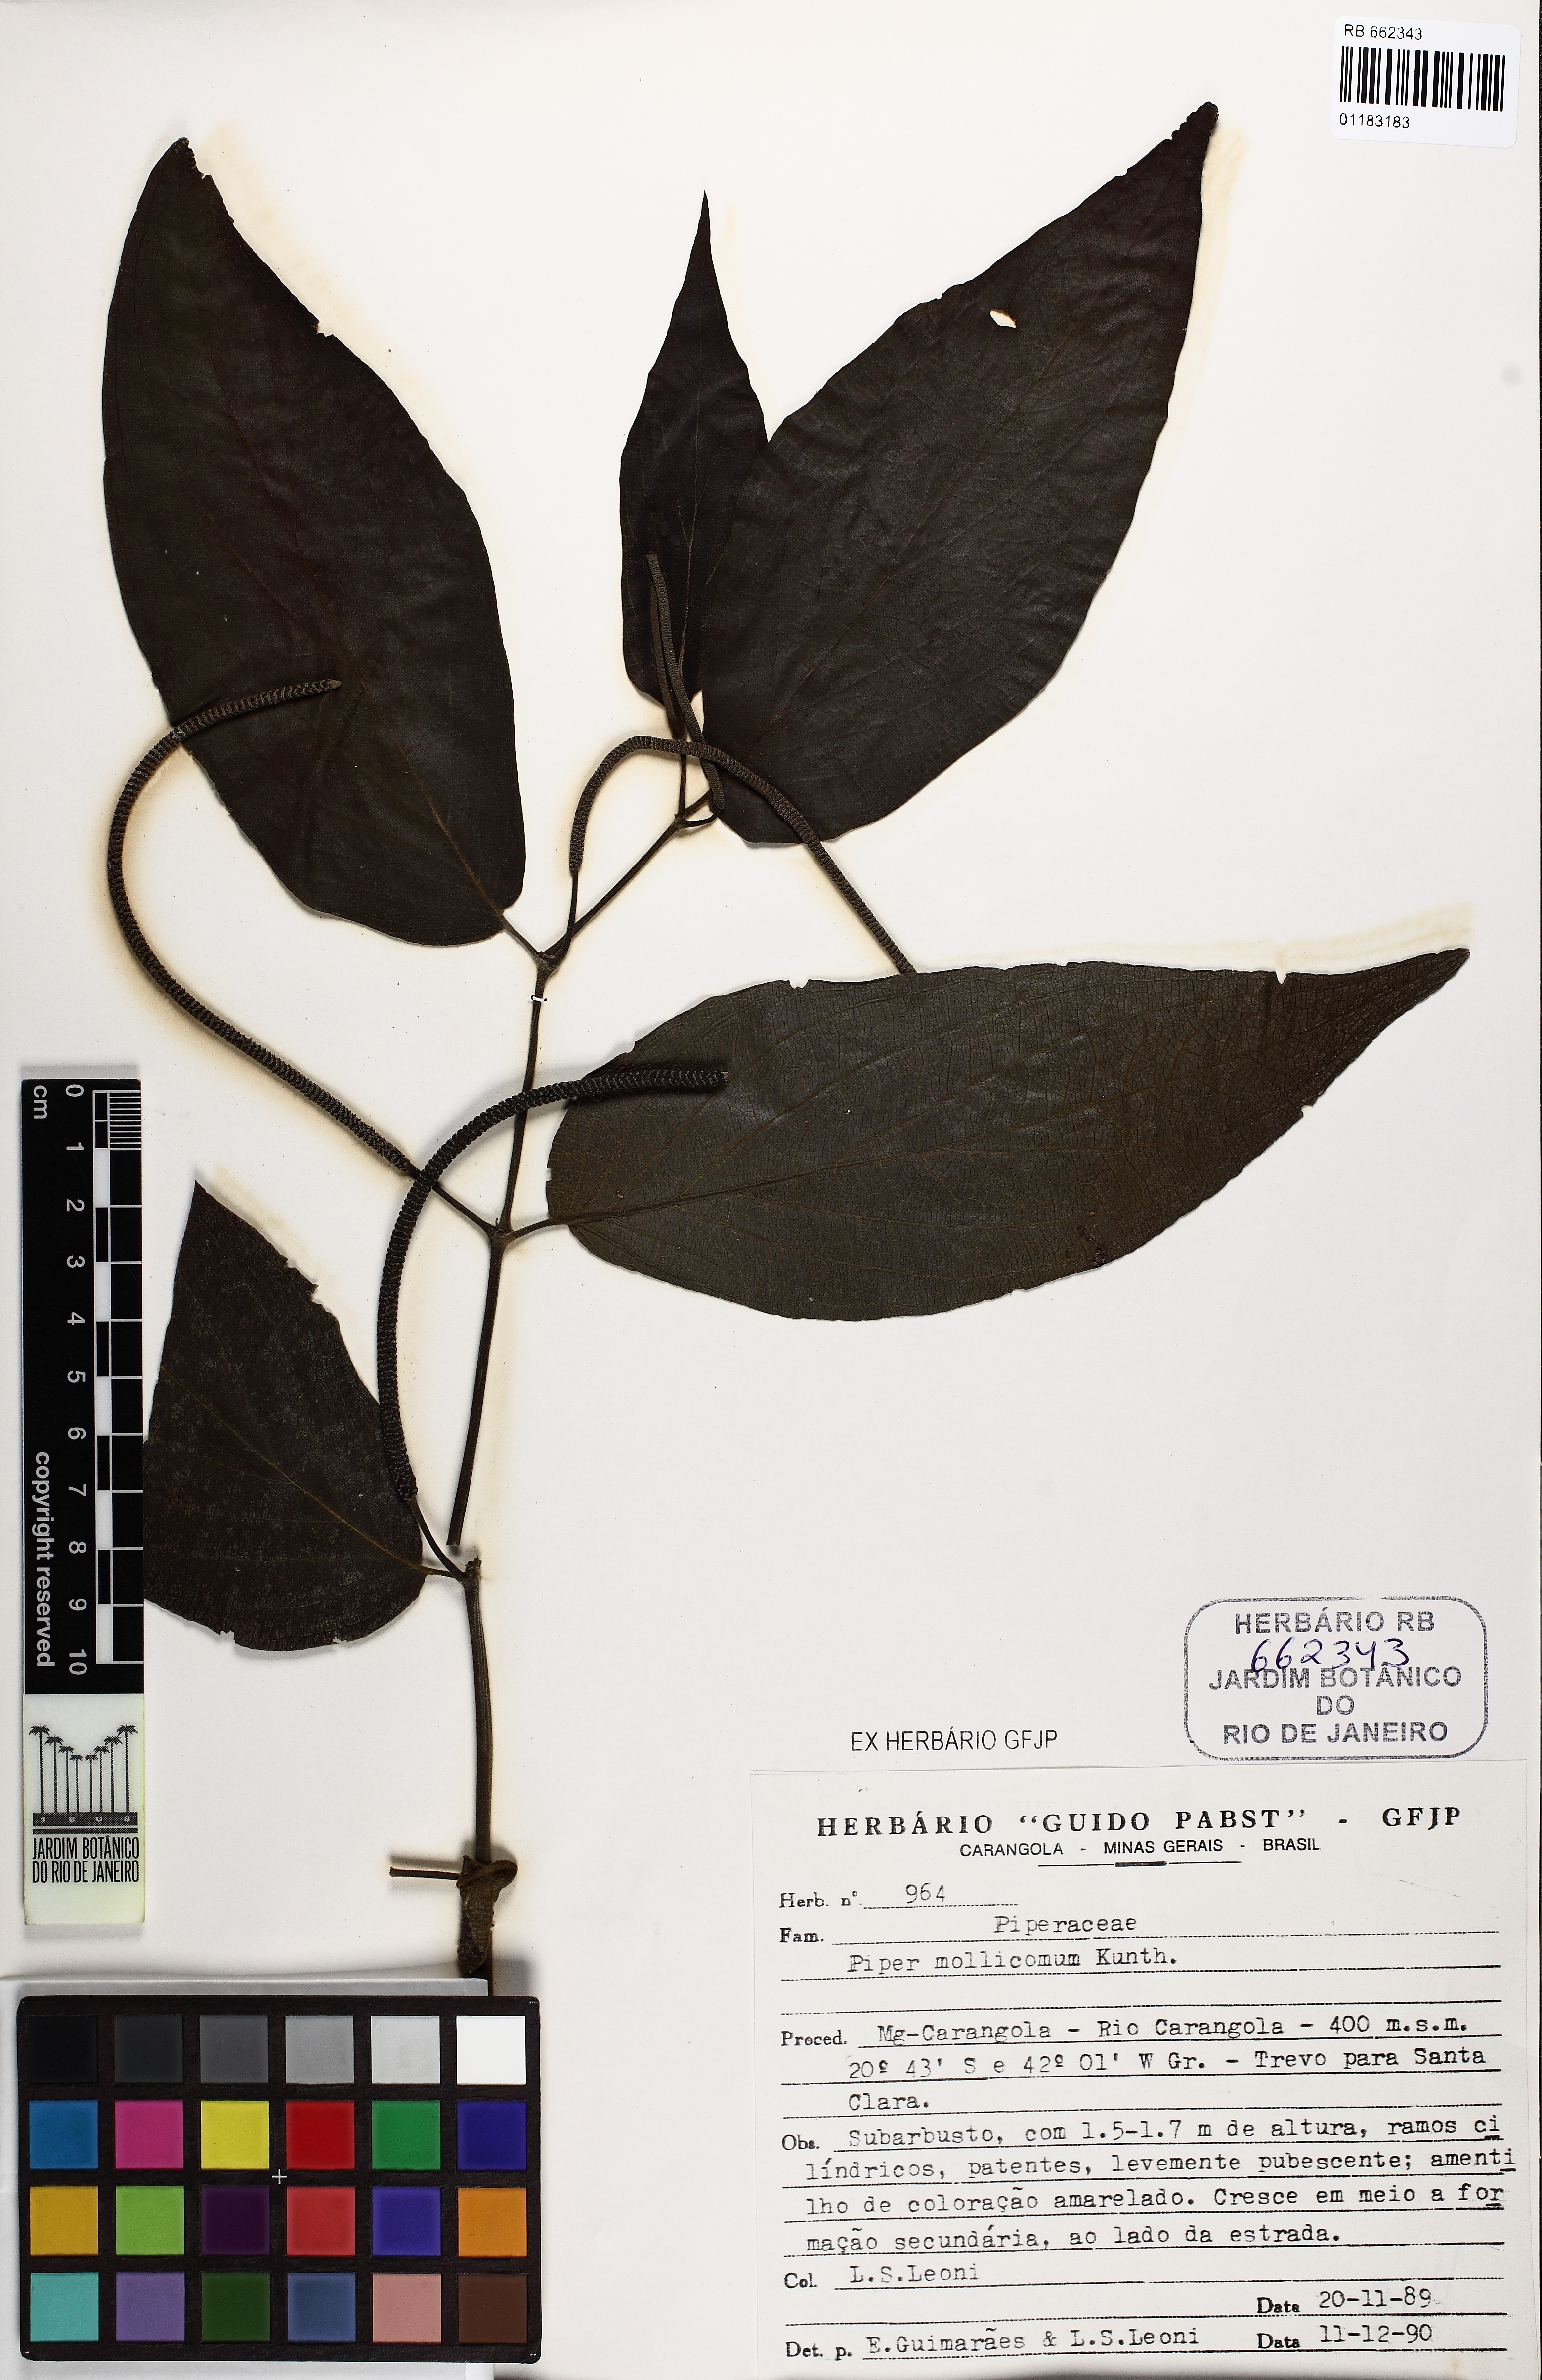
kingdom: Plantae
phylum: Tracheophyta
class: Magnoliopsida
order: Piperales
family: Piperaceae
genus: Piper
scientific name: Piper mollicomum
